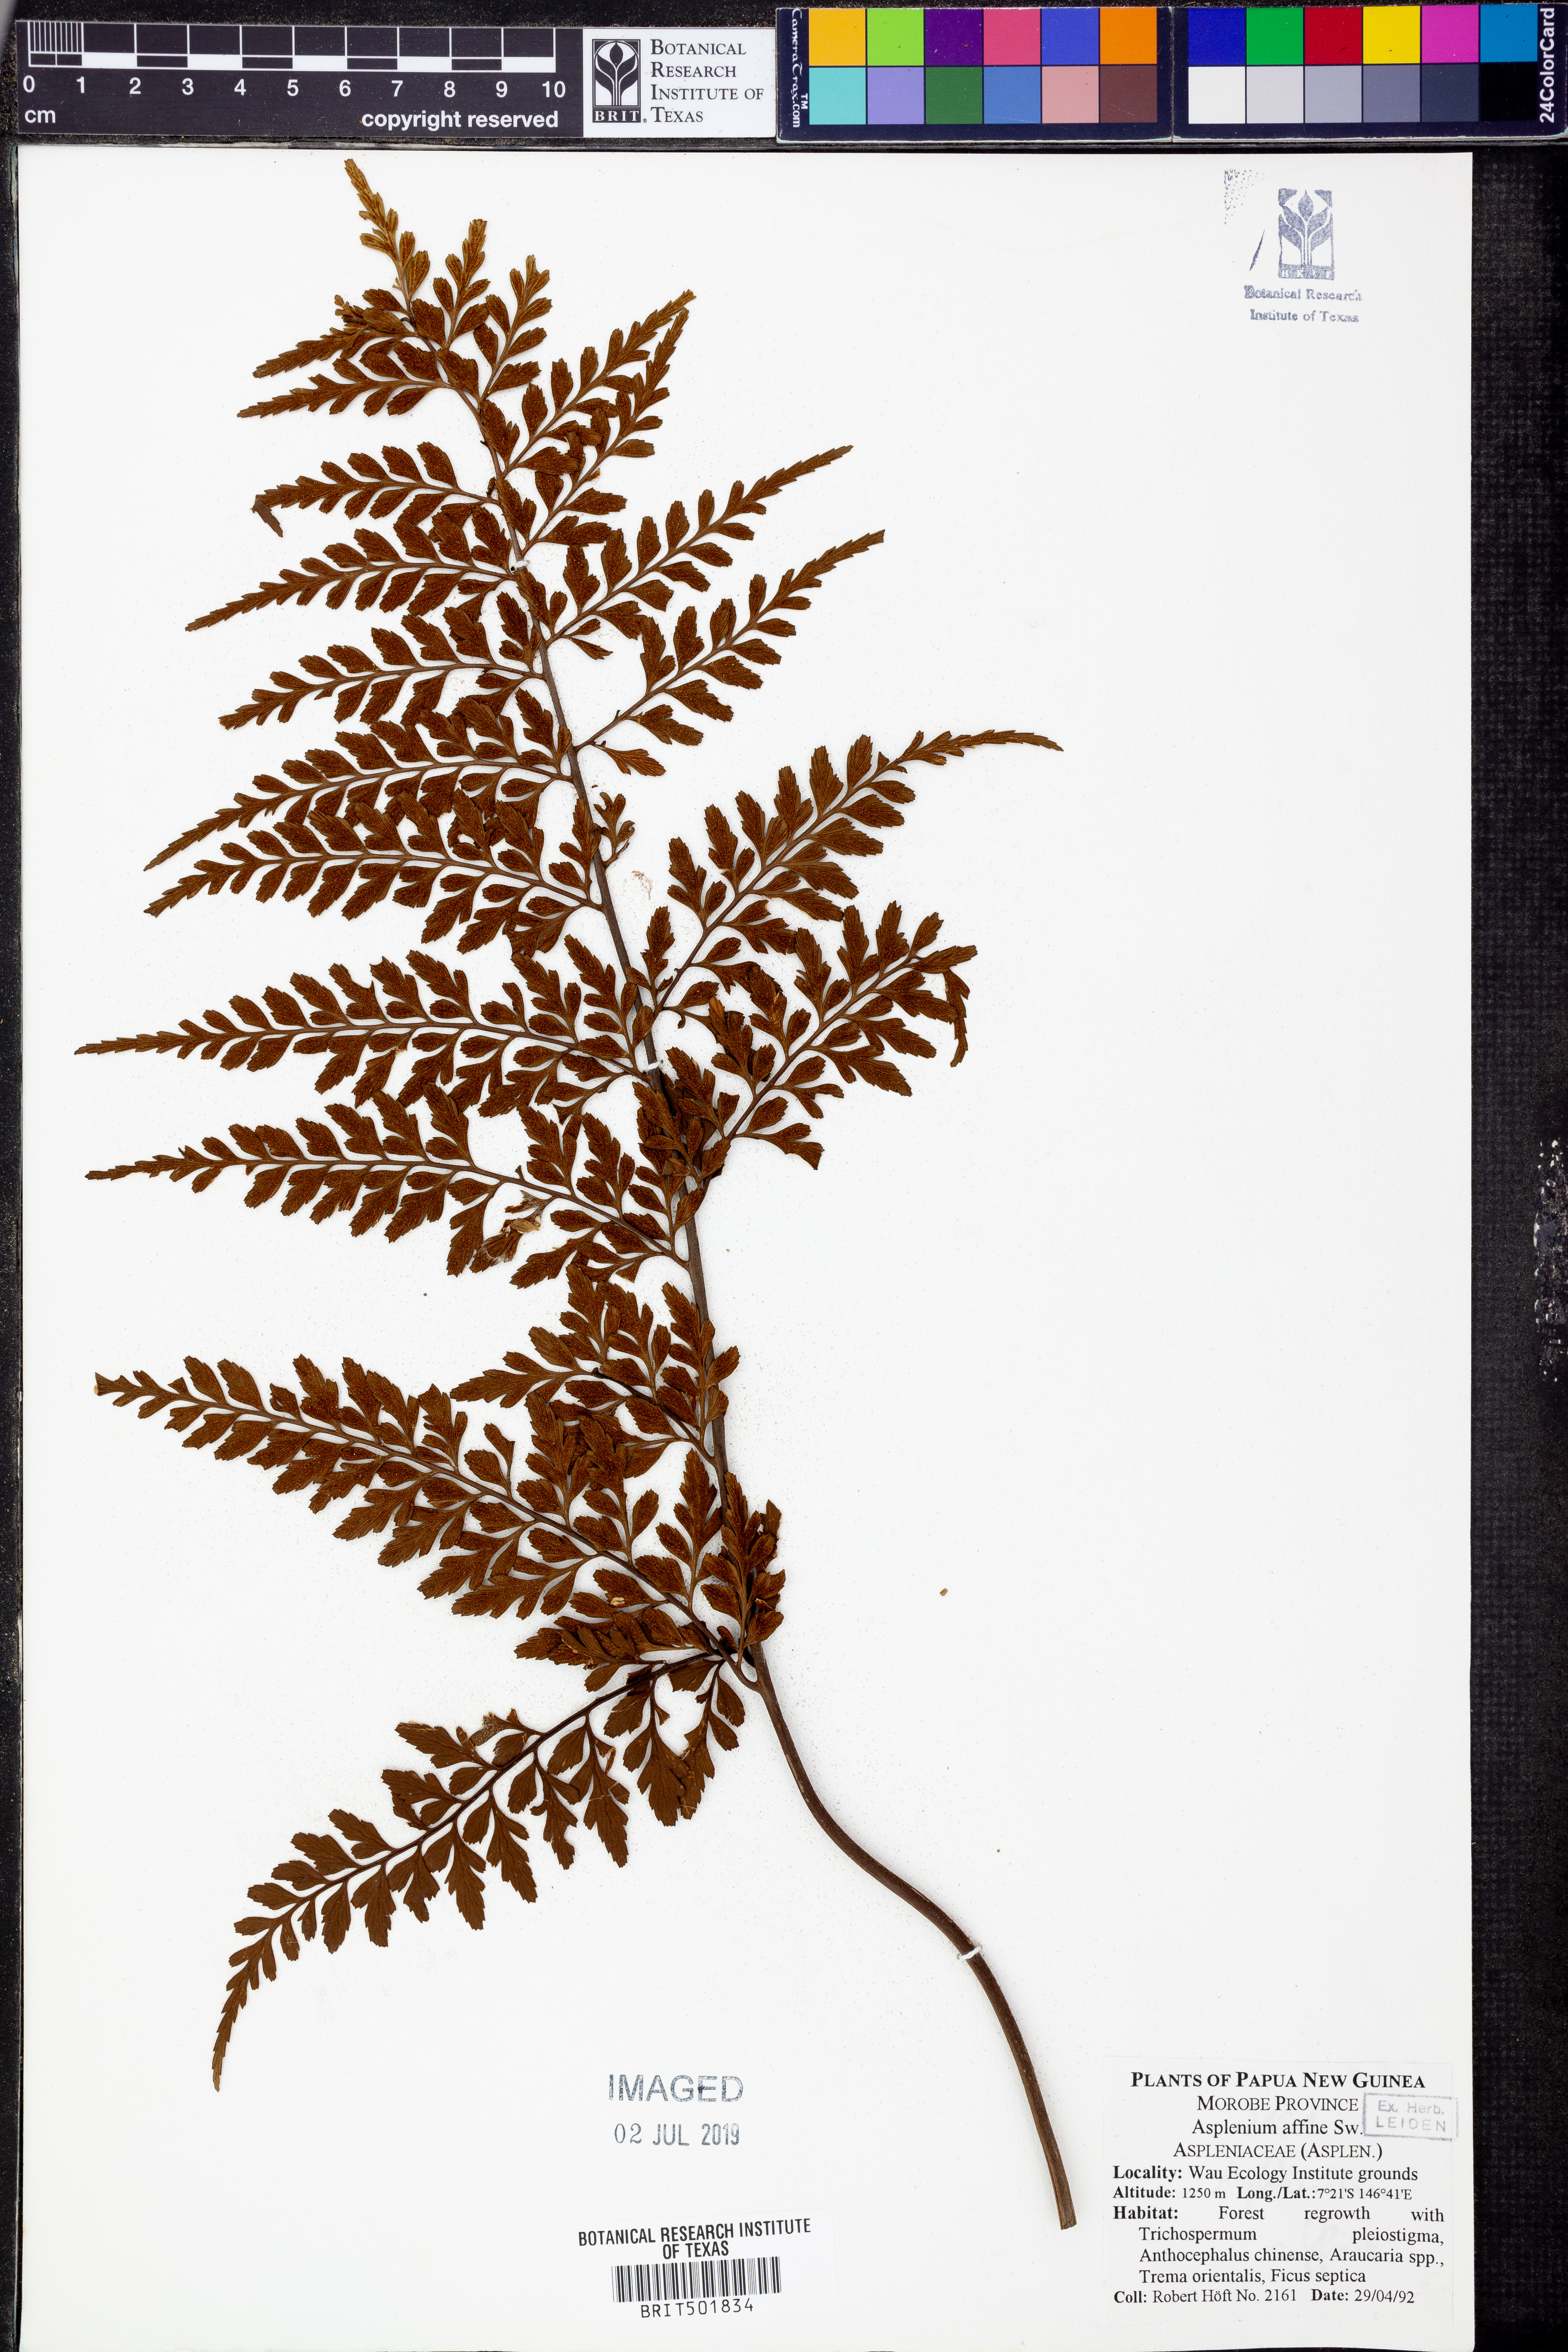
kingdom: Plantae
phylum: Tracheophyta
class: Polypodiopsida
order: Polypodiales
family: Aspleniaceae
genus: Asplenium
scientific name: Asplenium affine
